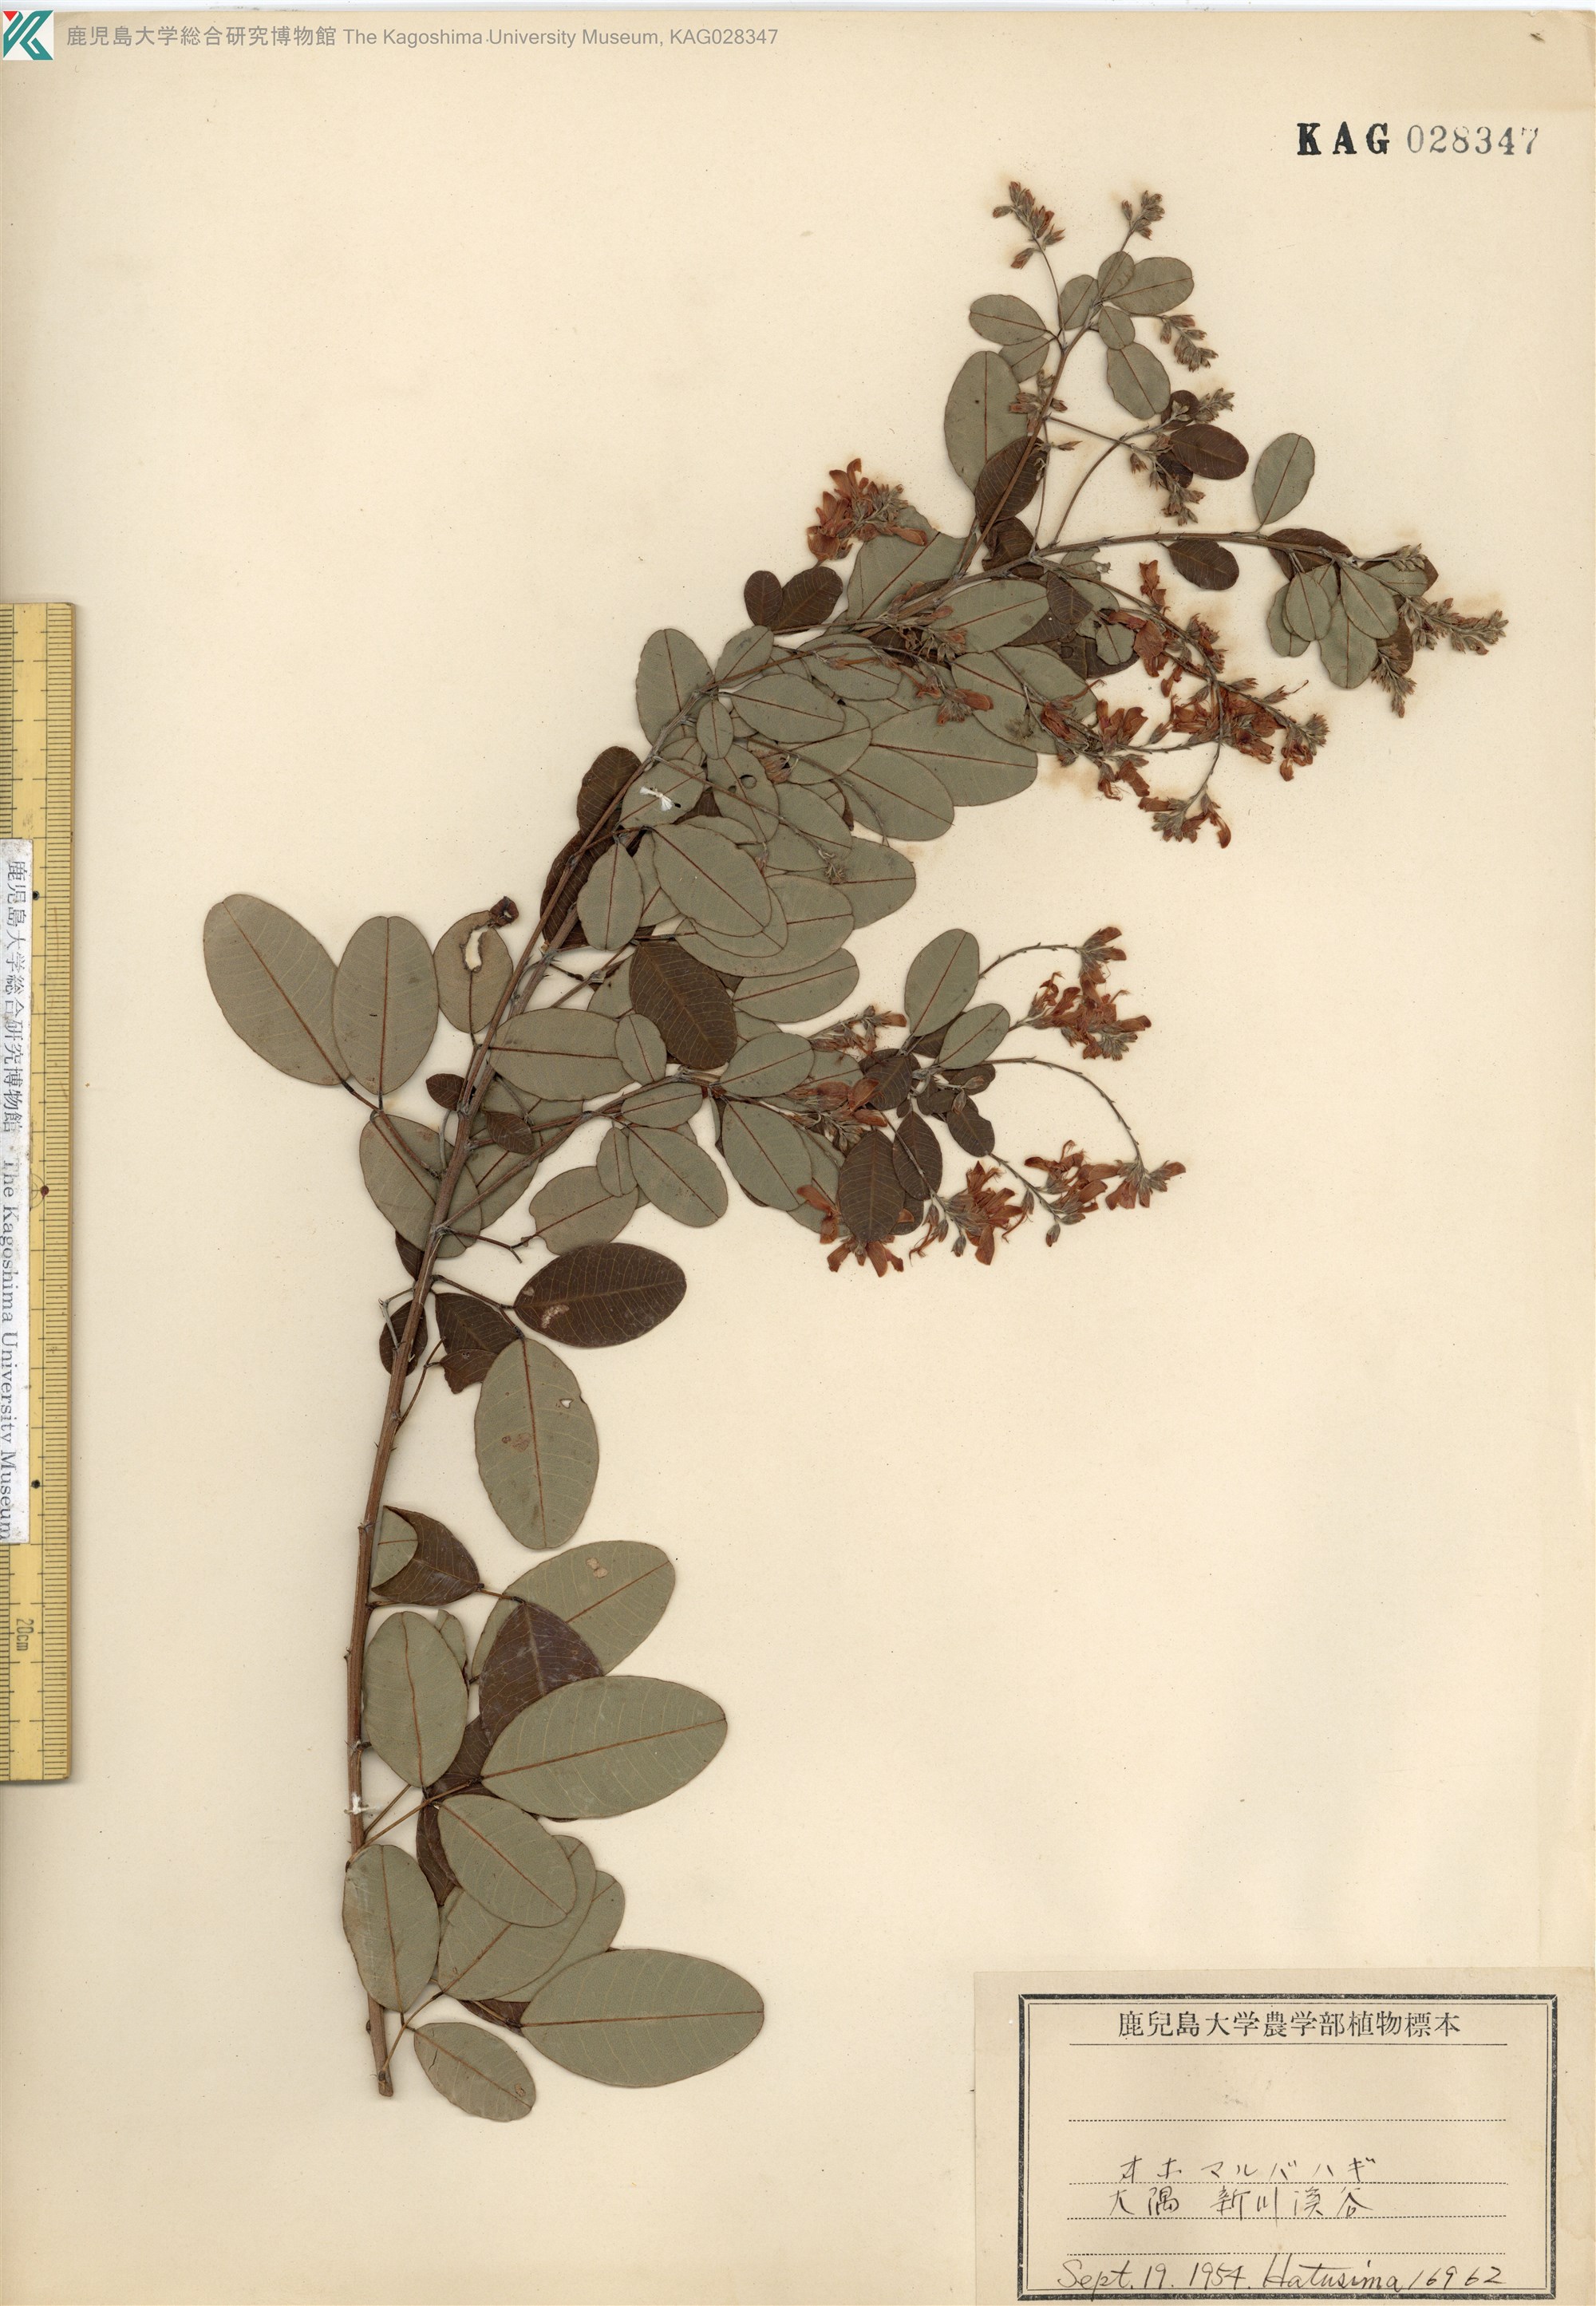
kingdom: Plantae
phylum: Tracheophyta
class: Magnoliopsida
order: Fabales
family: Fabaceae
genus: Lespedeza
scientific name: Lespedeza homoloba
